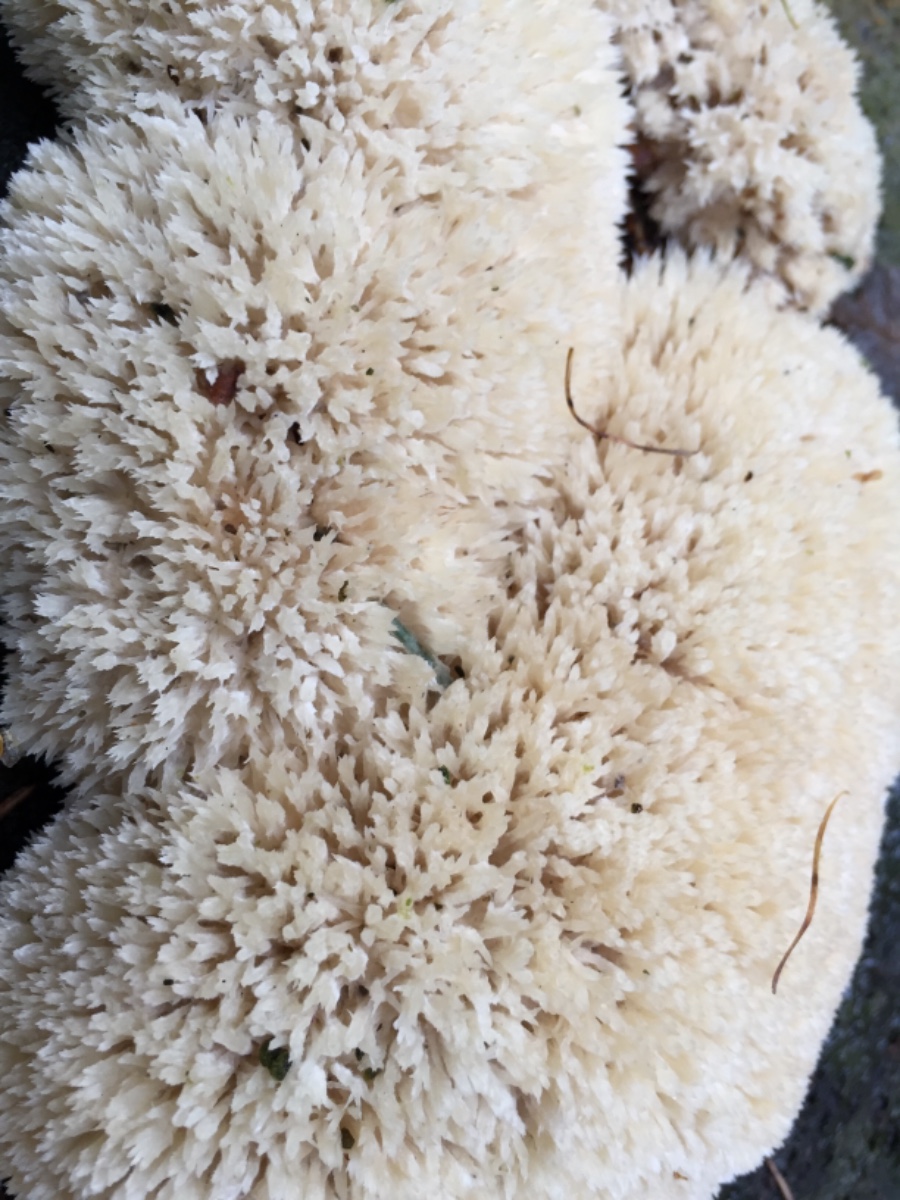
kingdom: Fungi
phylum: Basidiomycota
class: Agaricomycetes
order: Polyporales
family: Dacryobolaceae
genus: Postia
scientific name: Postia ptychogaster
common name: støvende kødporesvamp
